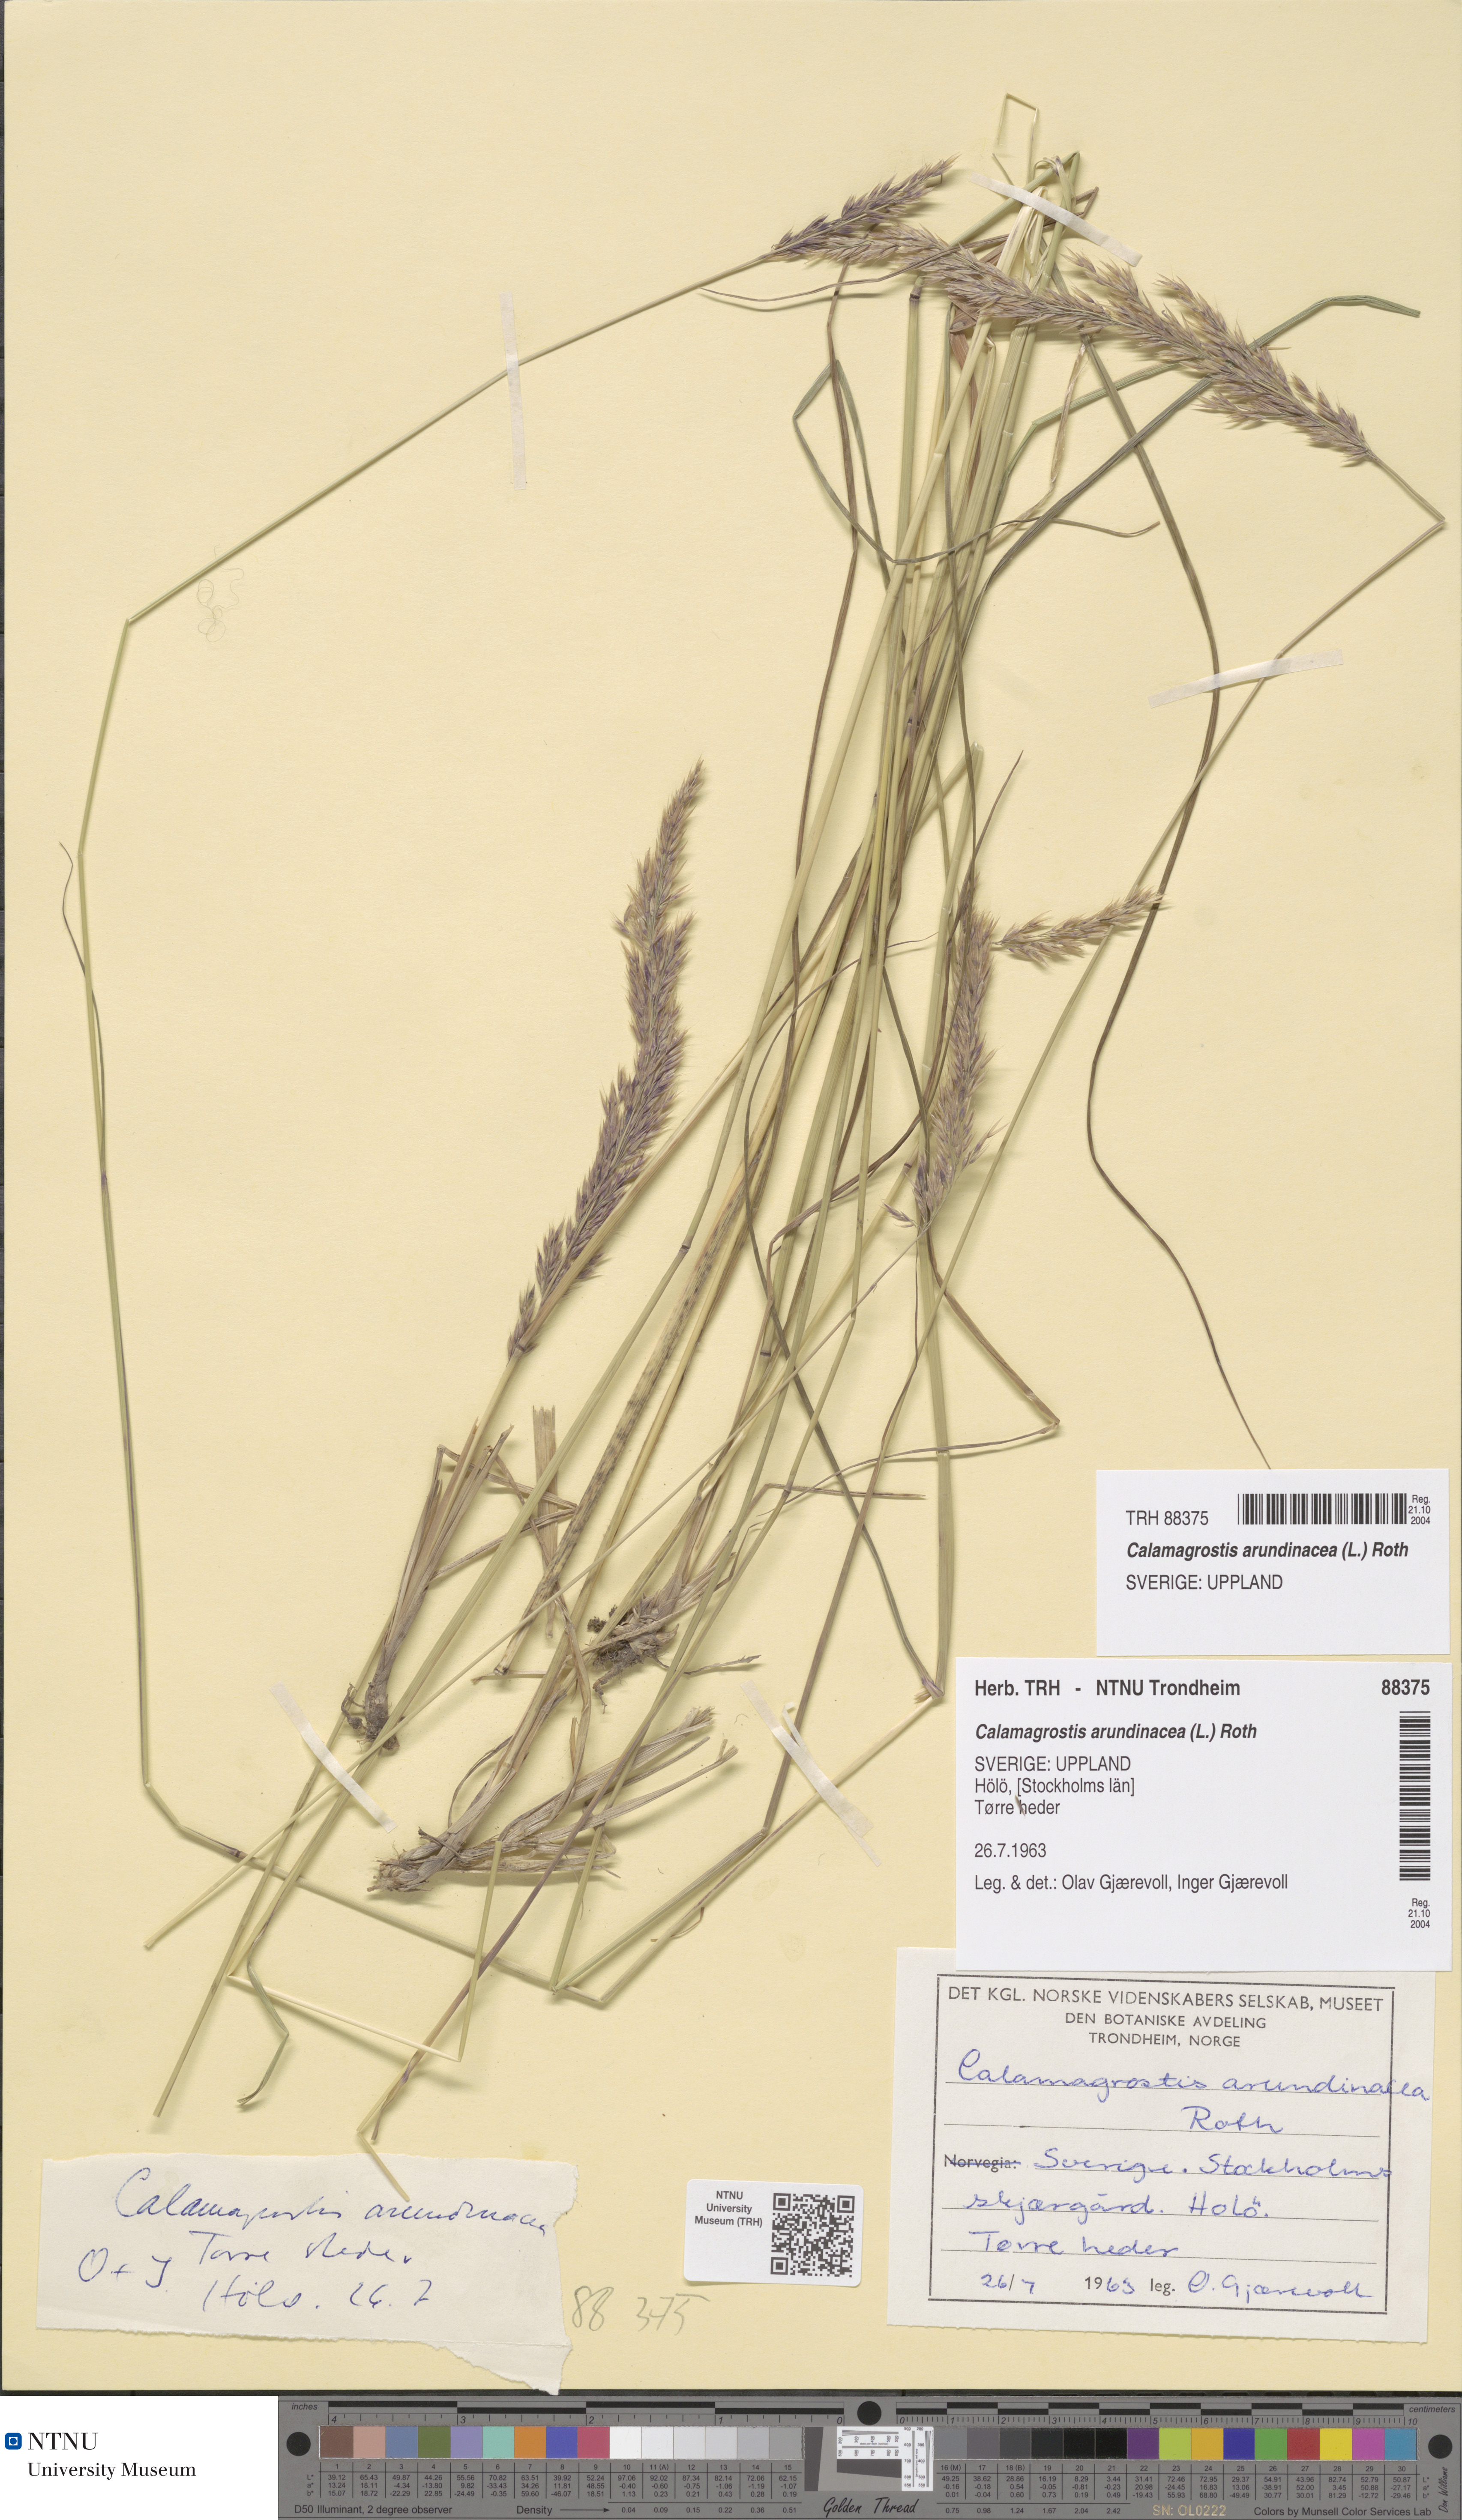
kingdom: Plantae
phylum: Tracheophyta
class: Liliopsida
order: Poales
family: Poaceae
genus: Calamagrostis
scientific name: Calamagrostis arundinacea
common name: Metskastik
